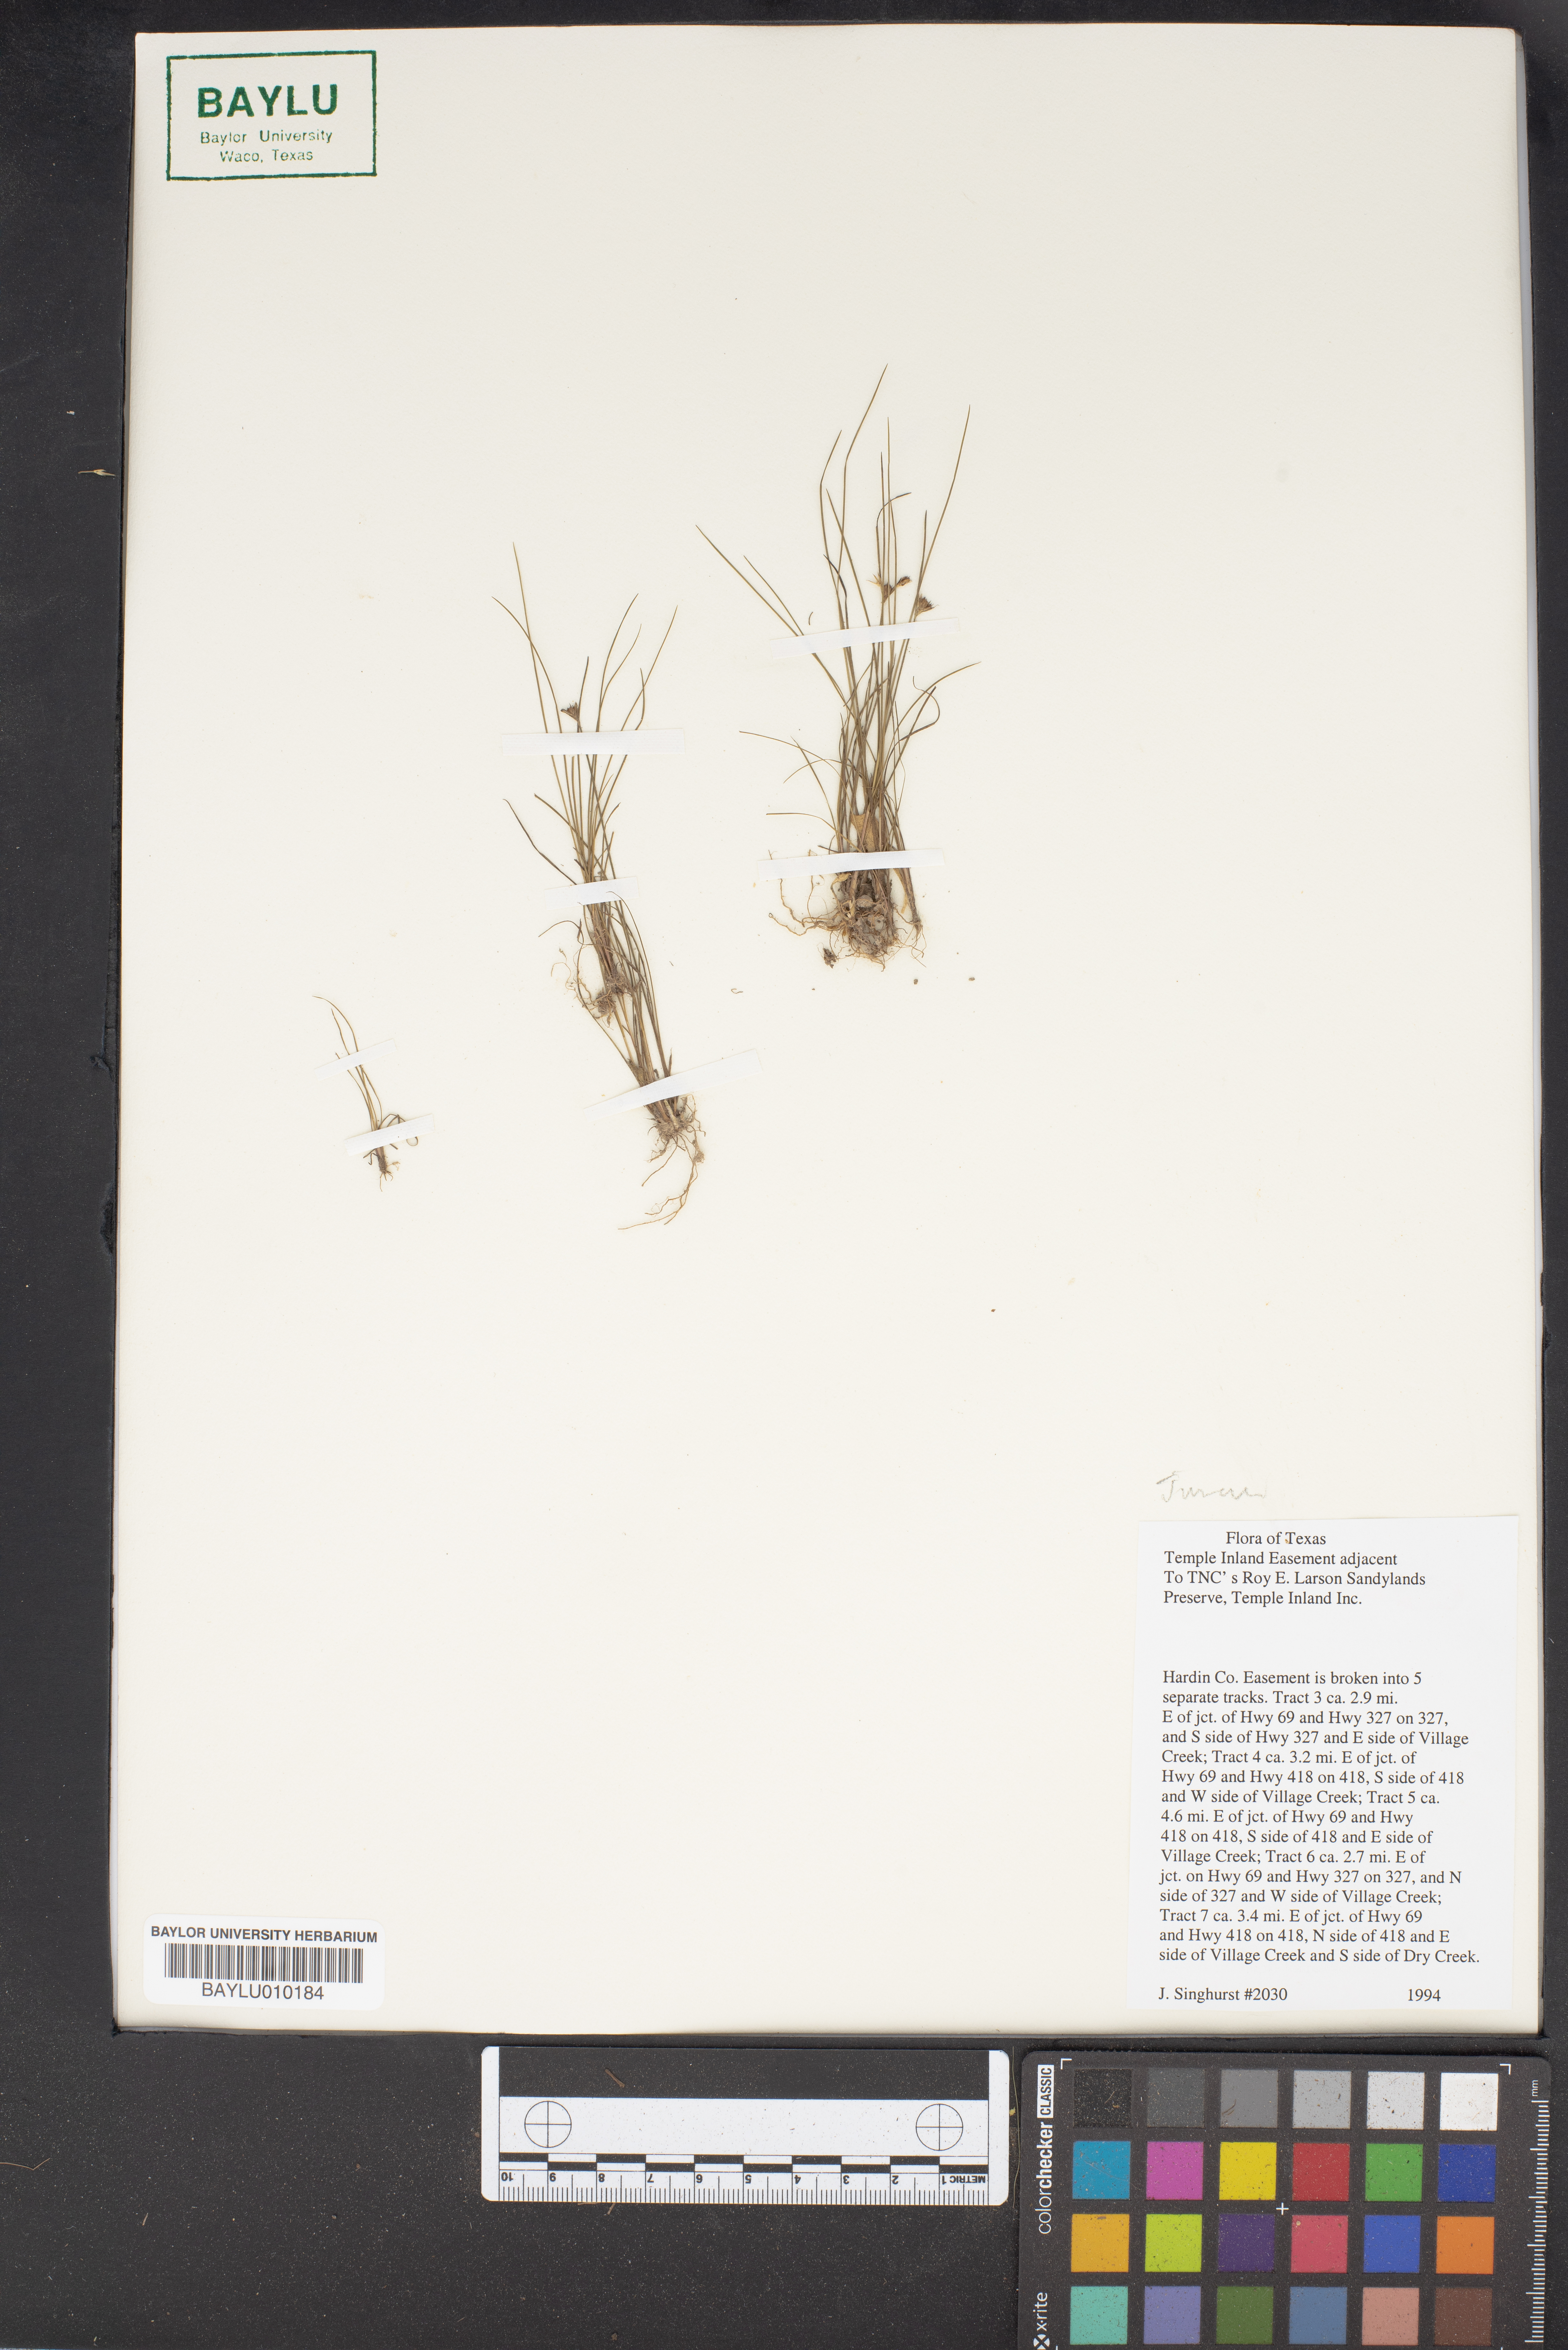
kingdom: Plantae
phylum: Tracheophyta
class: Liliopsida
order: Poales
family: Juncaceae
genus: Juncus
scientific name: Juncus hemiendytus
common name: Hermann's dwarf rush
